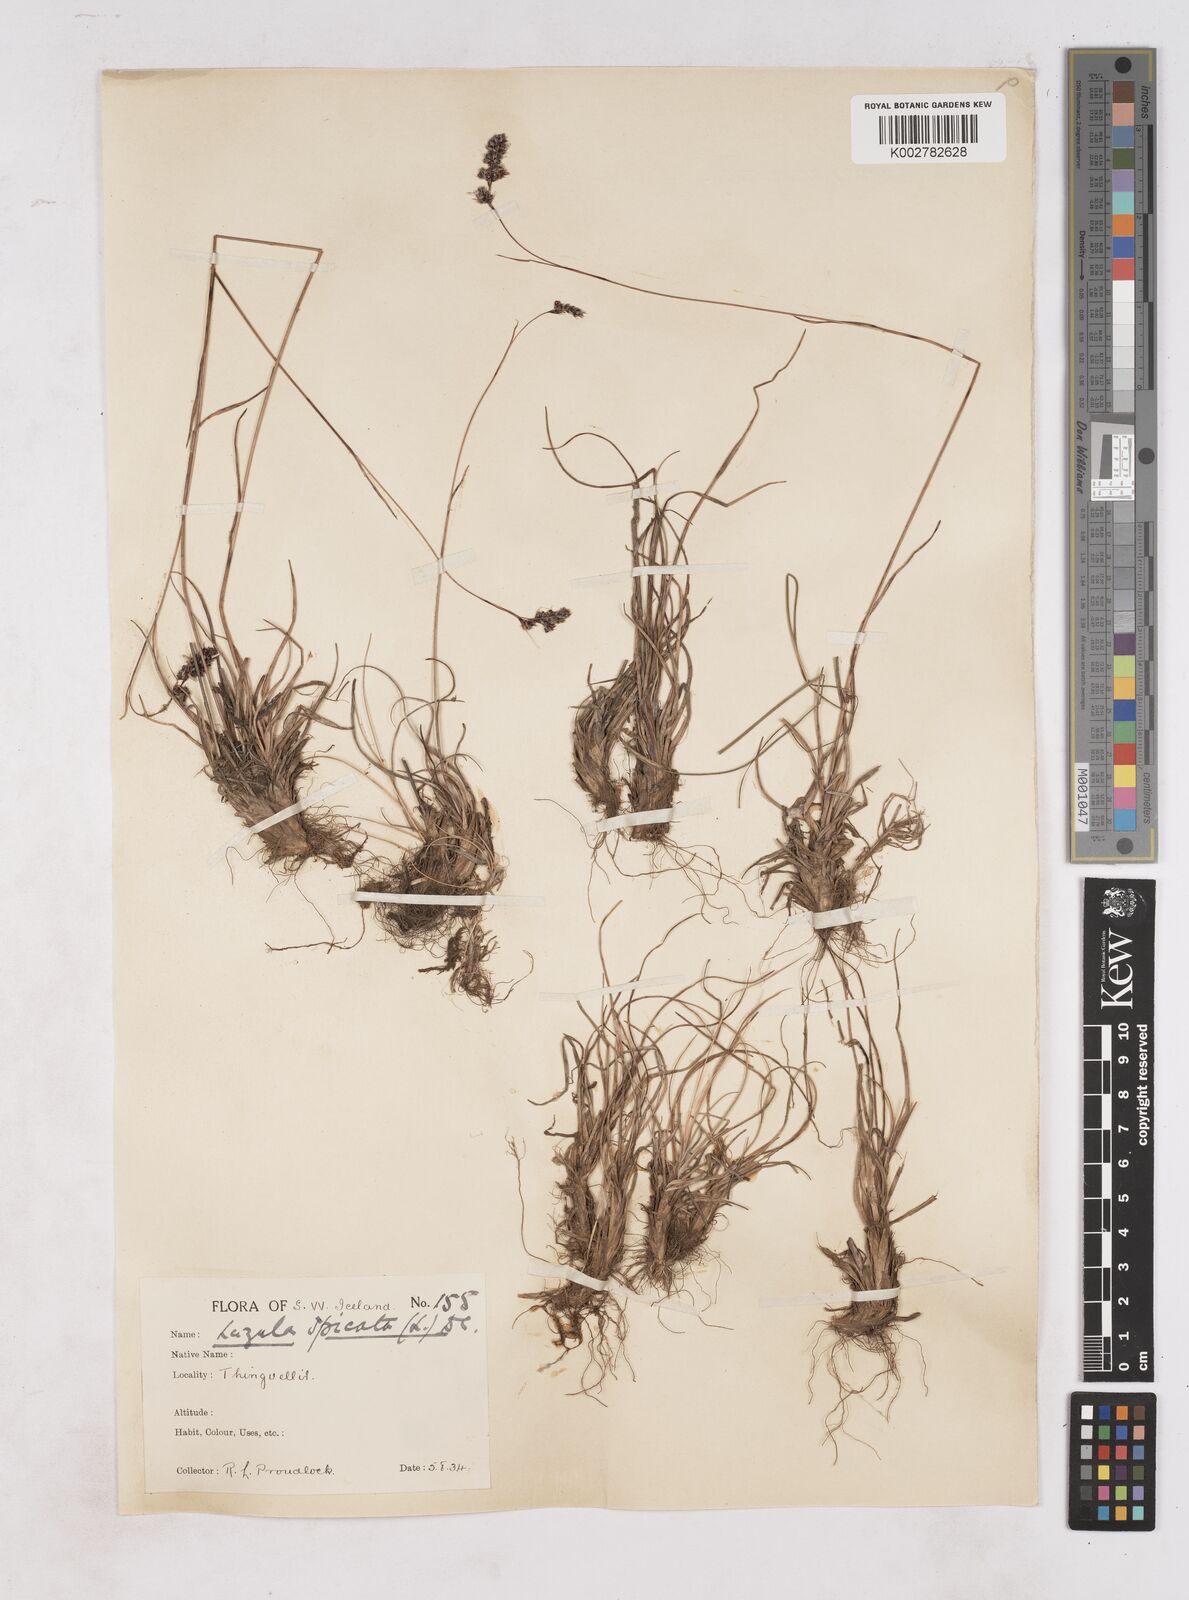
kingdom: Plantae
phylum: Tracheophyta
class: Liliopsida
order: Poales
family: Juncaceae
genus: Luzula
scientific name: Luzula spicata
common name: Spiked wood-rush
